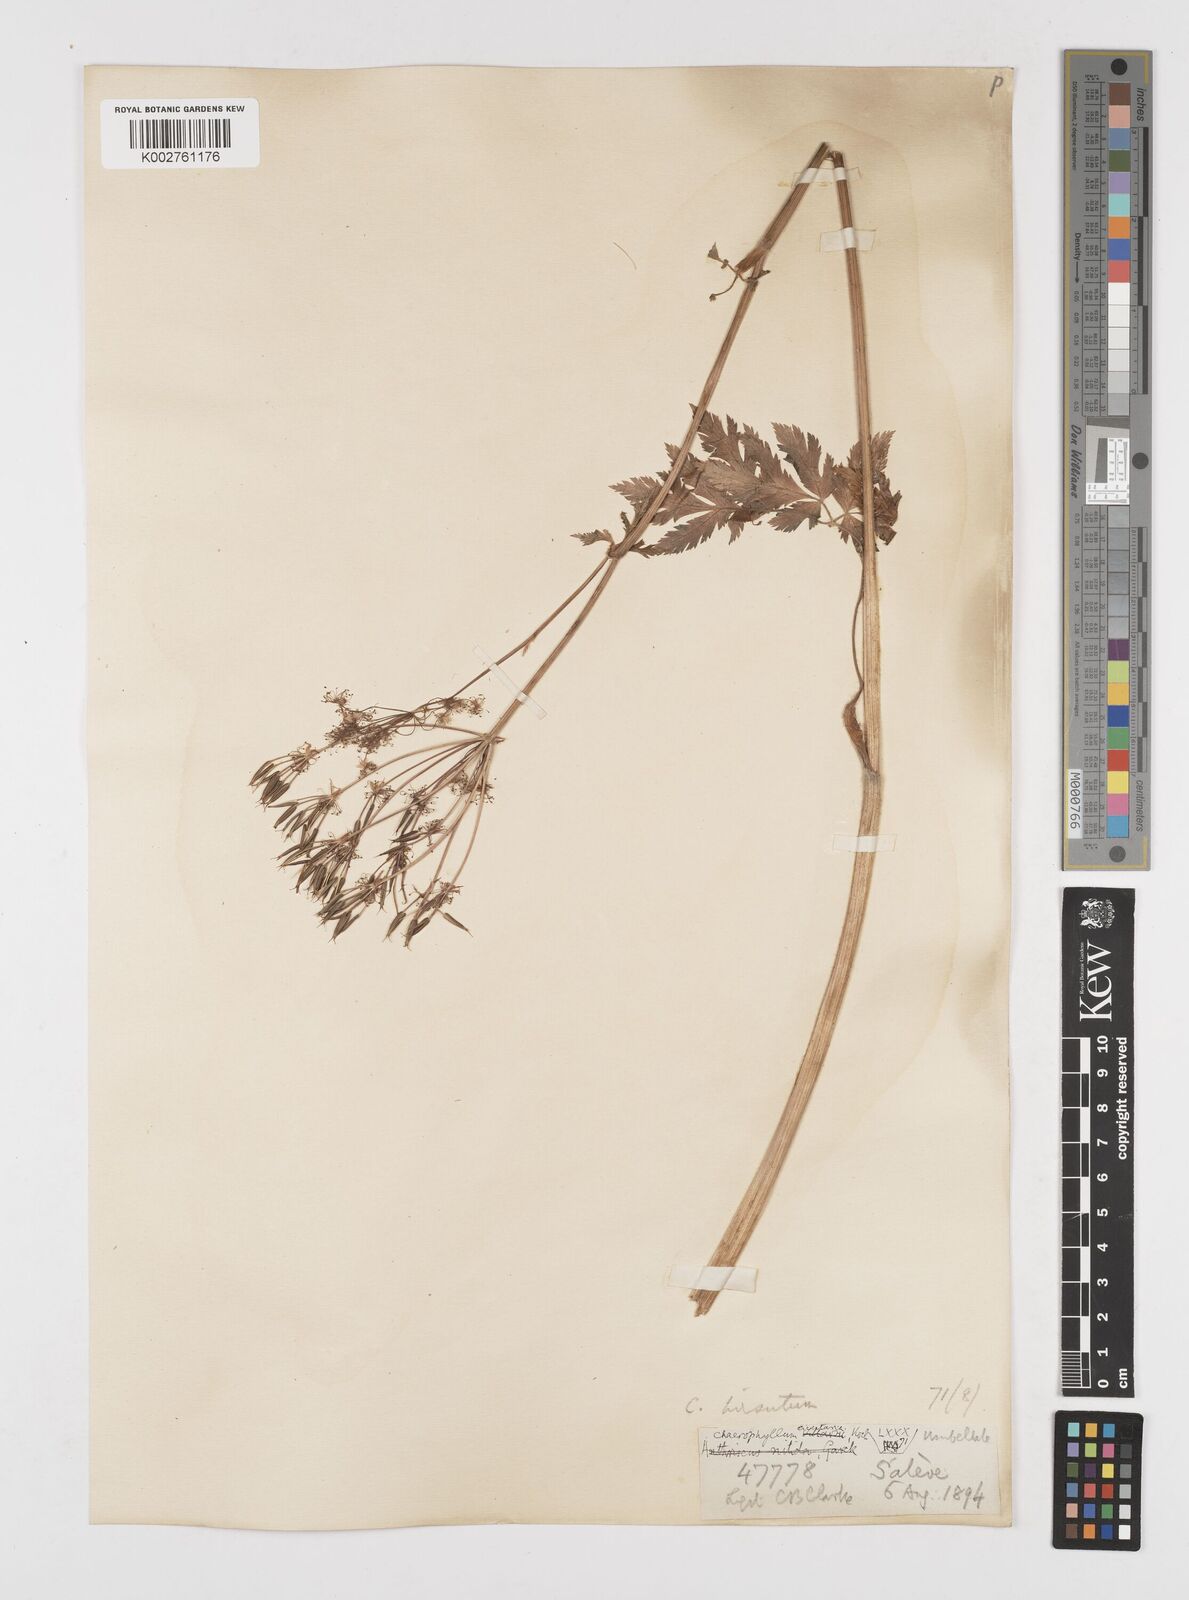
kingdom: Plantae
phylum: Tracheophyta
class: Magnoliopsida
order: Apiales
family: Apiaceae
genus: Chaerophyllum
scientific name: Chaerophyllum hirsutum
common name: Hairy chervil
